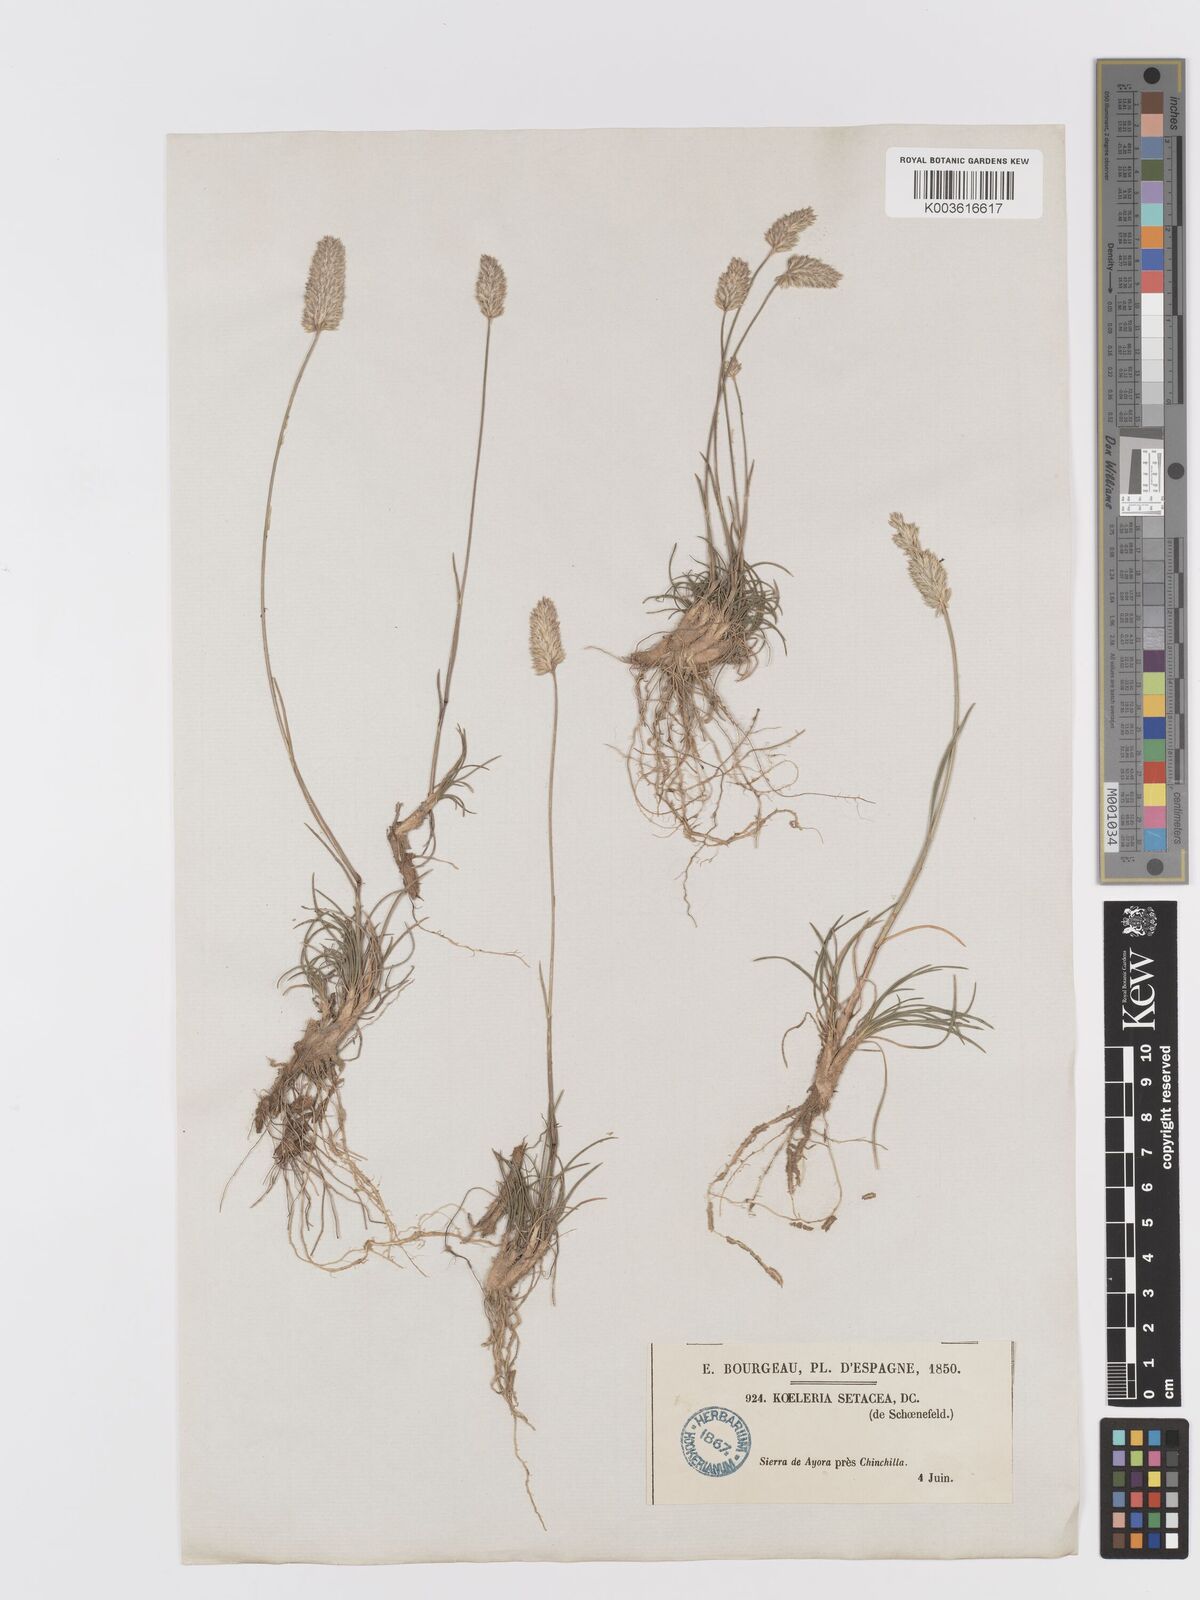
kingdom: Plantae
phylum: Tracheophyta
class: Liliopsida
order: Poales
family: Poaceae
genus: Koeleria
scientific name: Koeleria vallesiana
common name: Somerset hair-grass
